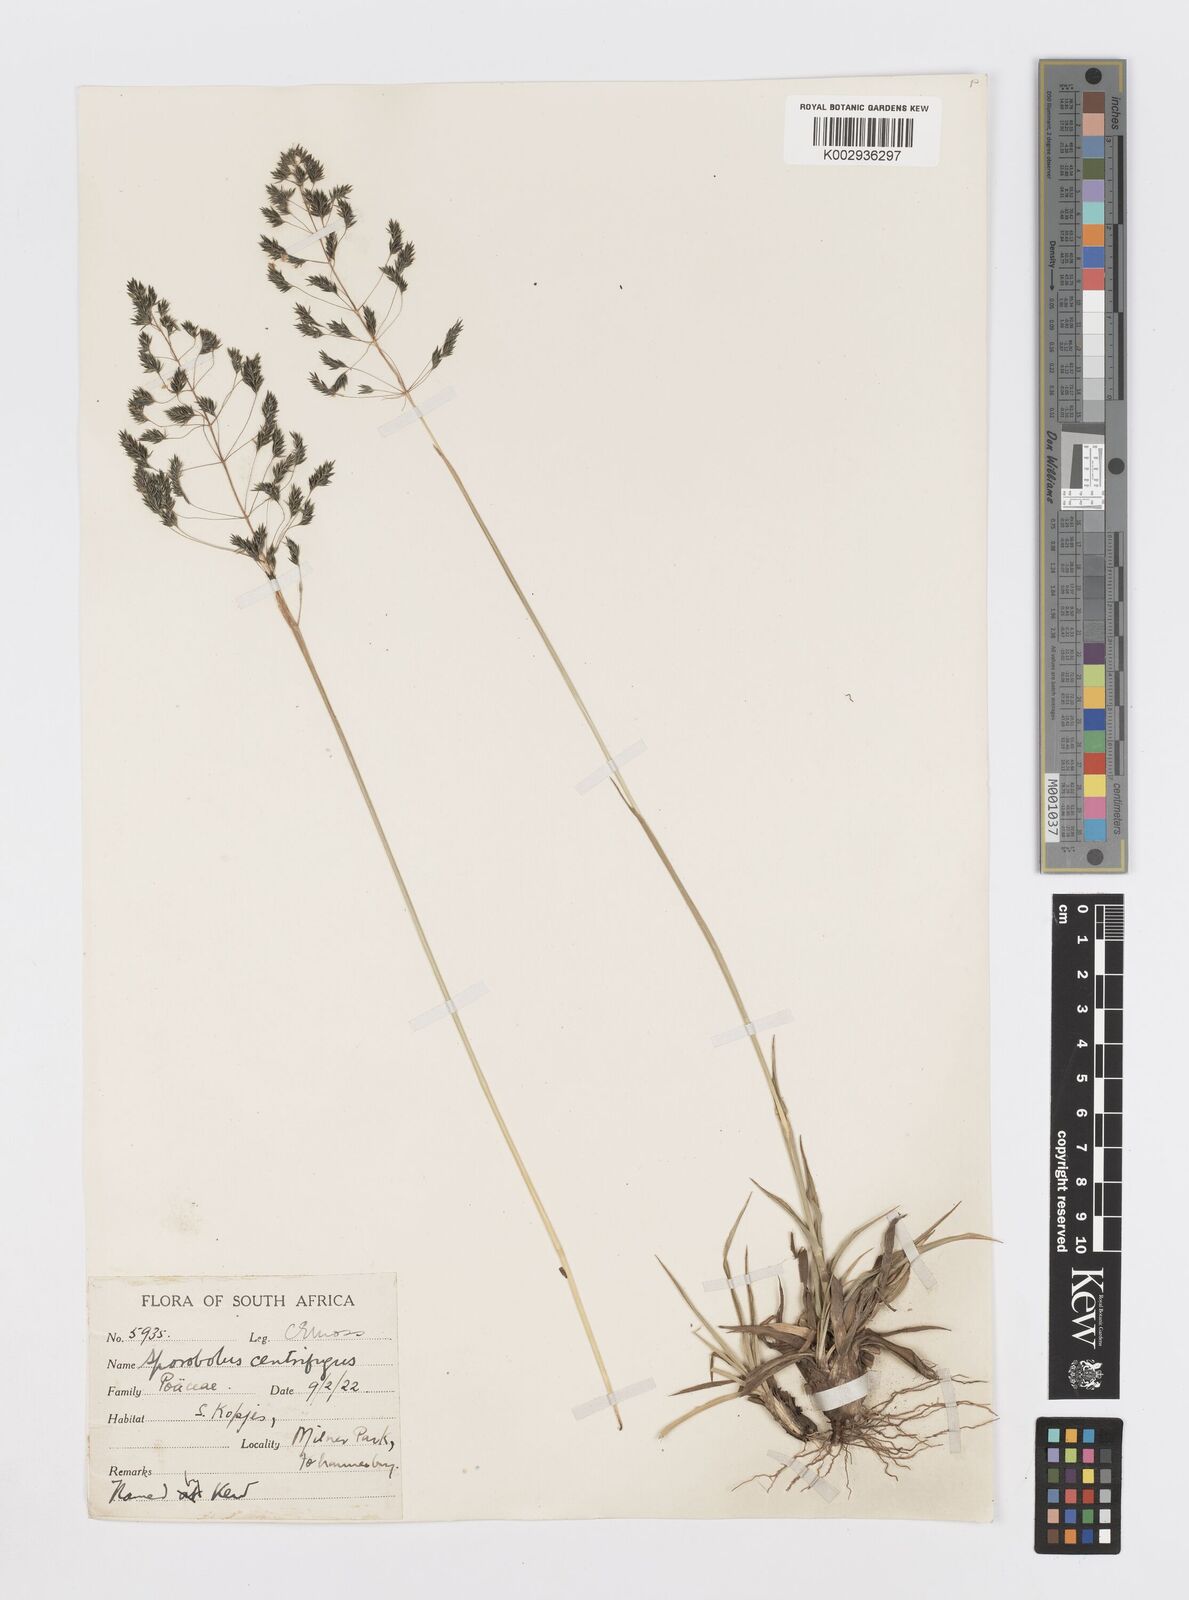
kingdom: Plantae
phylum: Tracheophyta
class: Liliopsida
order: Poales
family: Poaceae
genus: Sporobolus
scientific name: Sporobolus pectinatus
